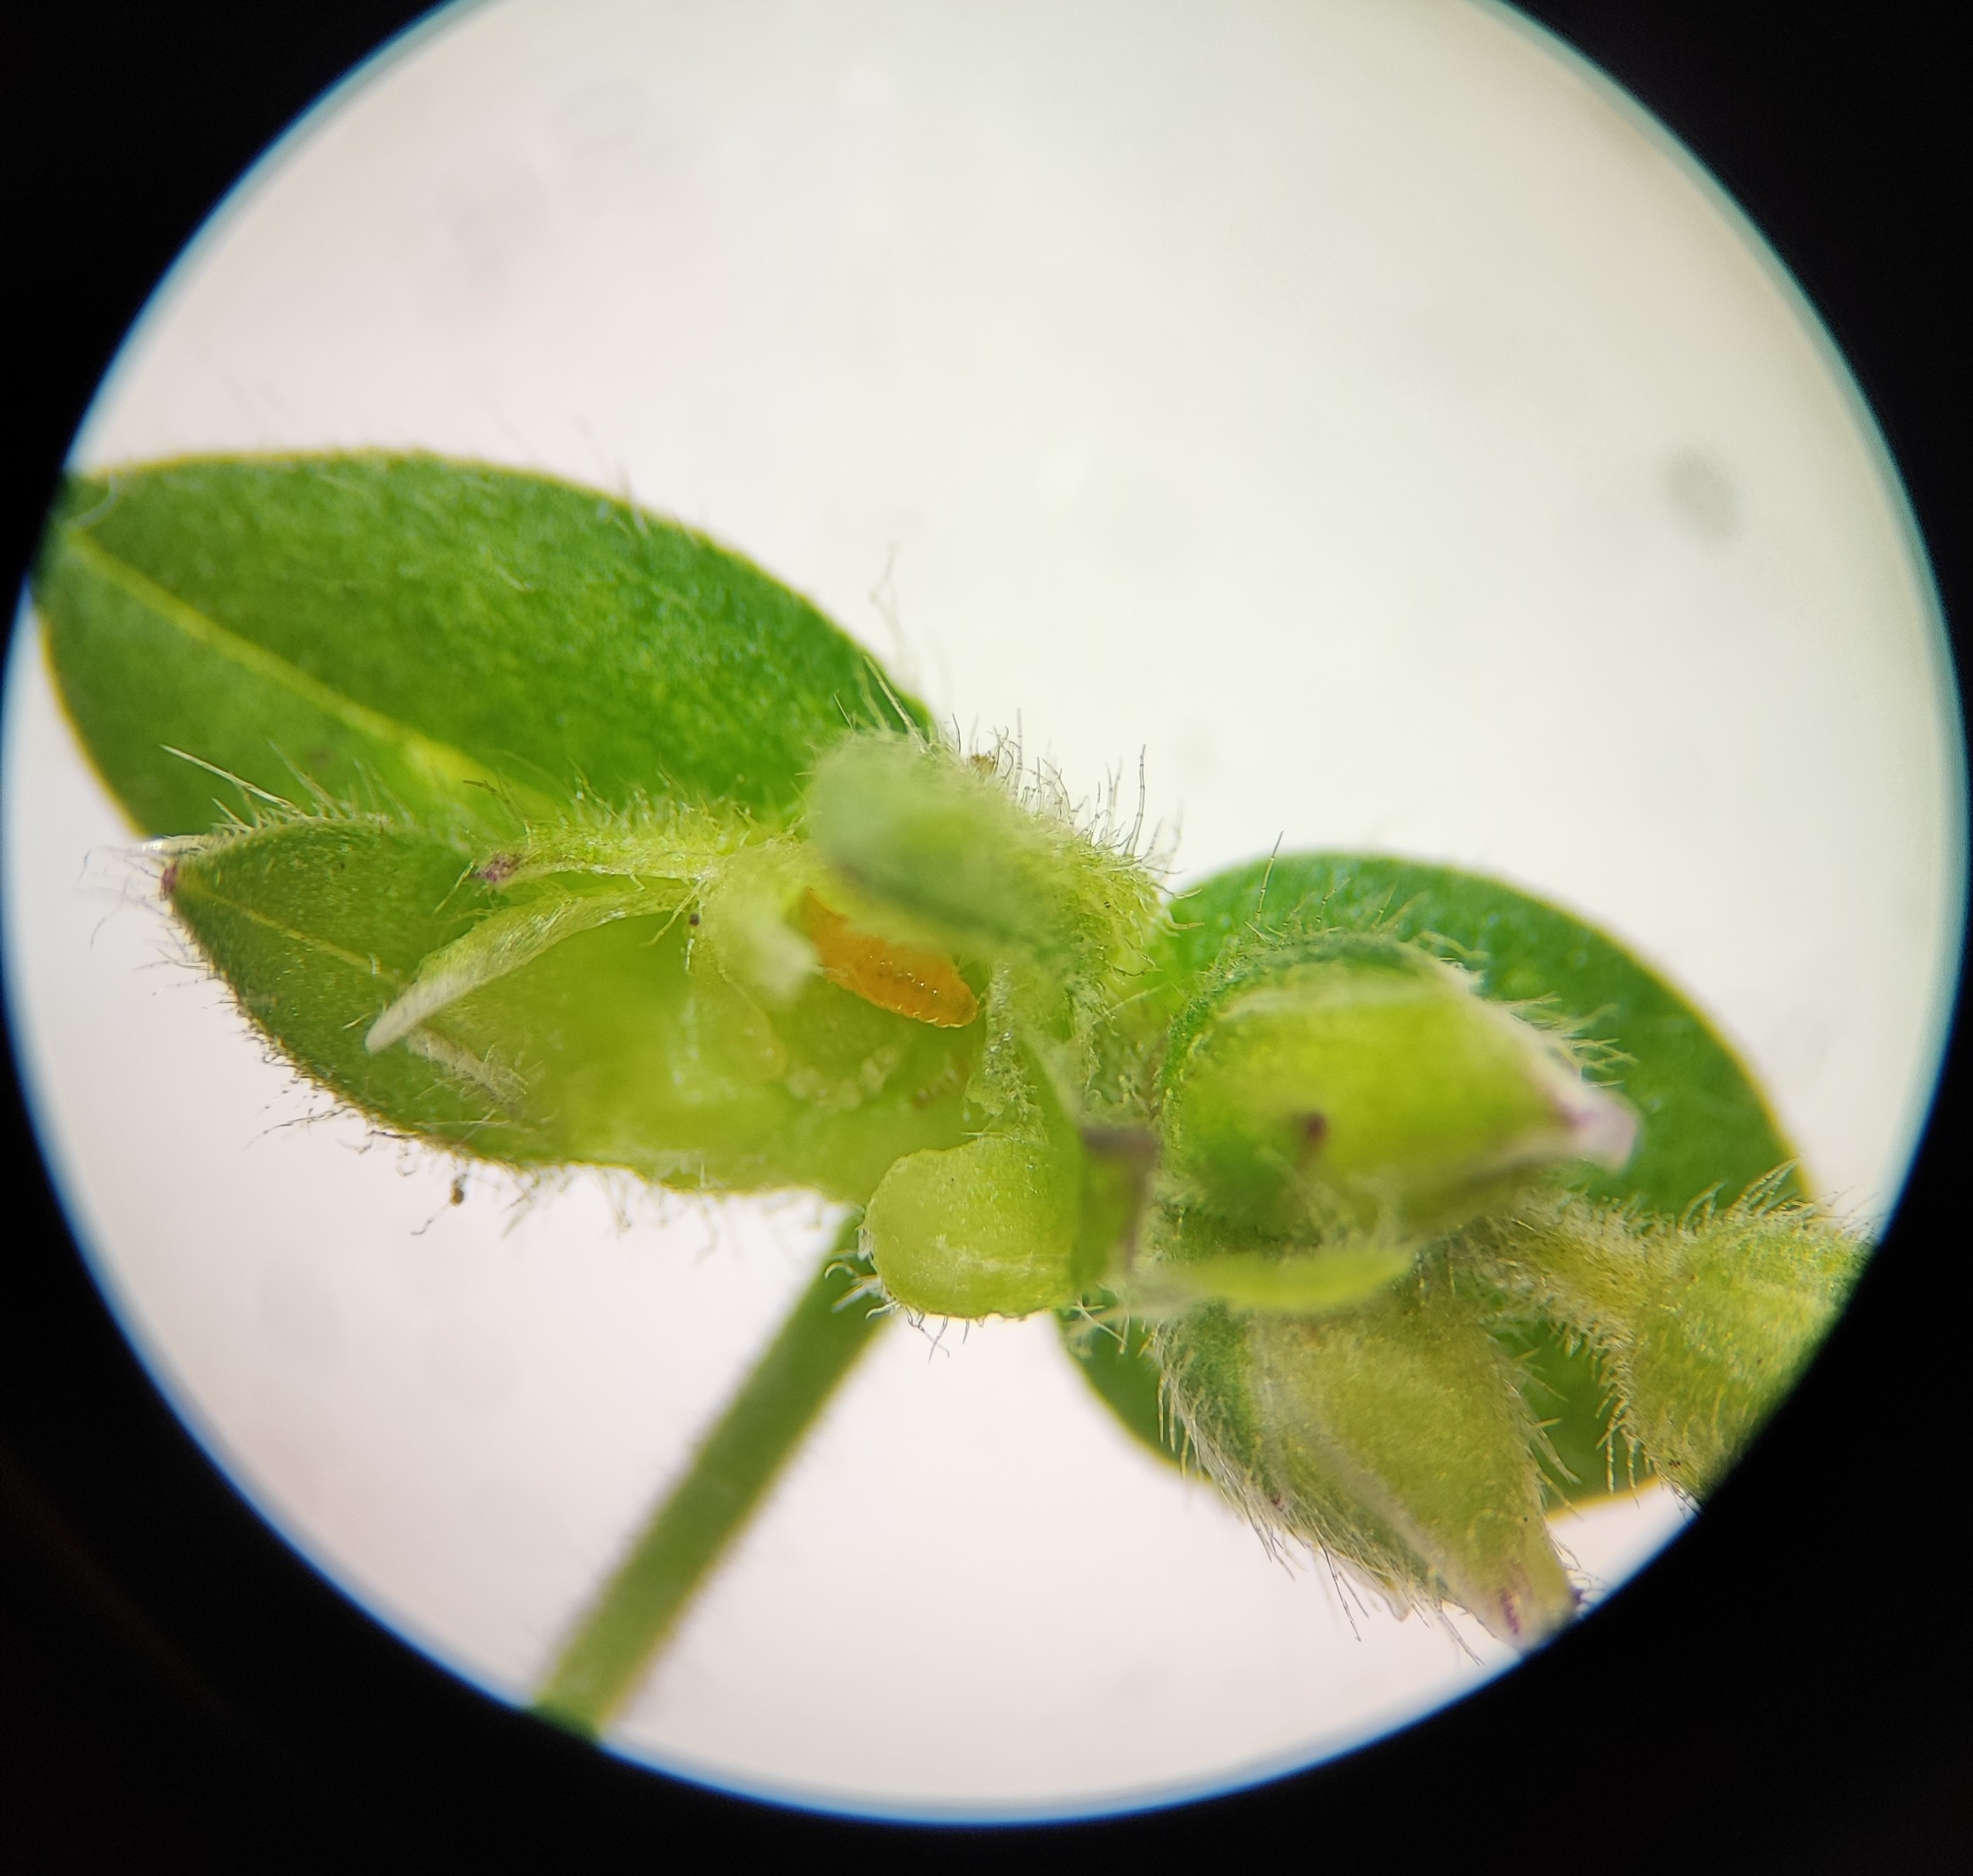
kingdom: Animalia
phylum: Arthropoda
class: Insecta
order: Diptera
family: Cecidomyiidae
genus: Dasineura
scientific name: Dasineura lotharingiae
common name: Hørsetarmskudgalmyg
